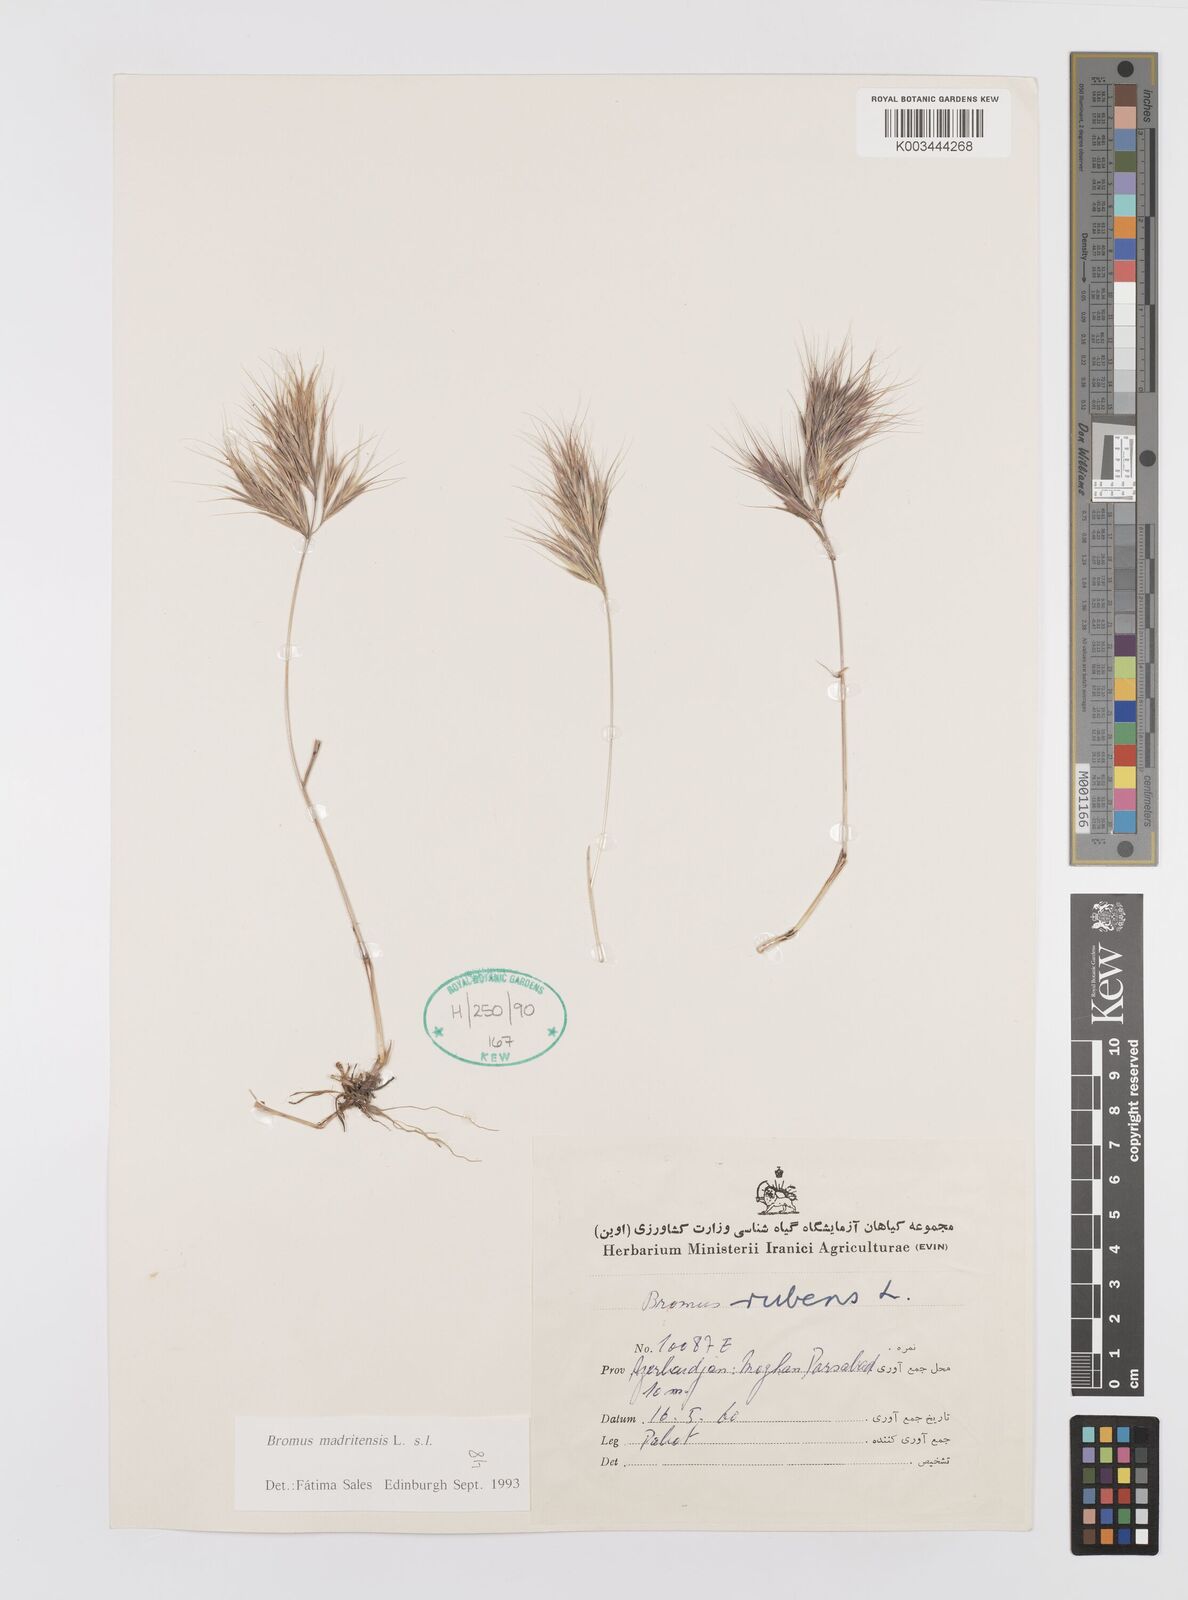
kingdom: Plantae
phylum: Tracheophyta
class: Liliopsida
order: Poales
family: Poaceae
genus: Bromus
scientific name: Bromus madritensis
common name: Compact brome
